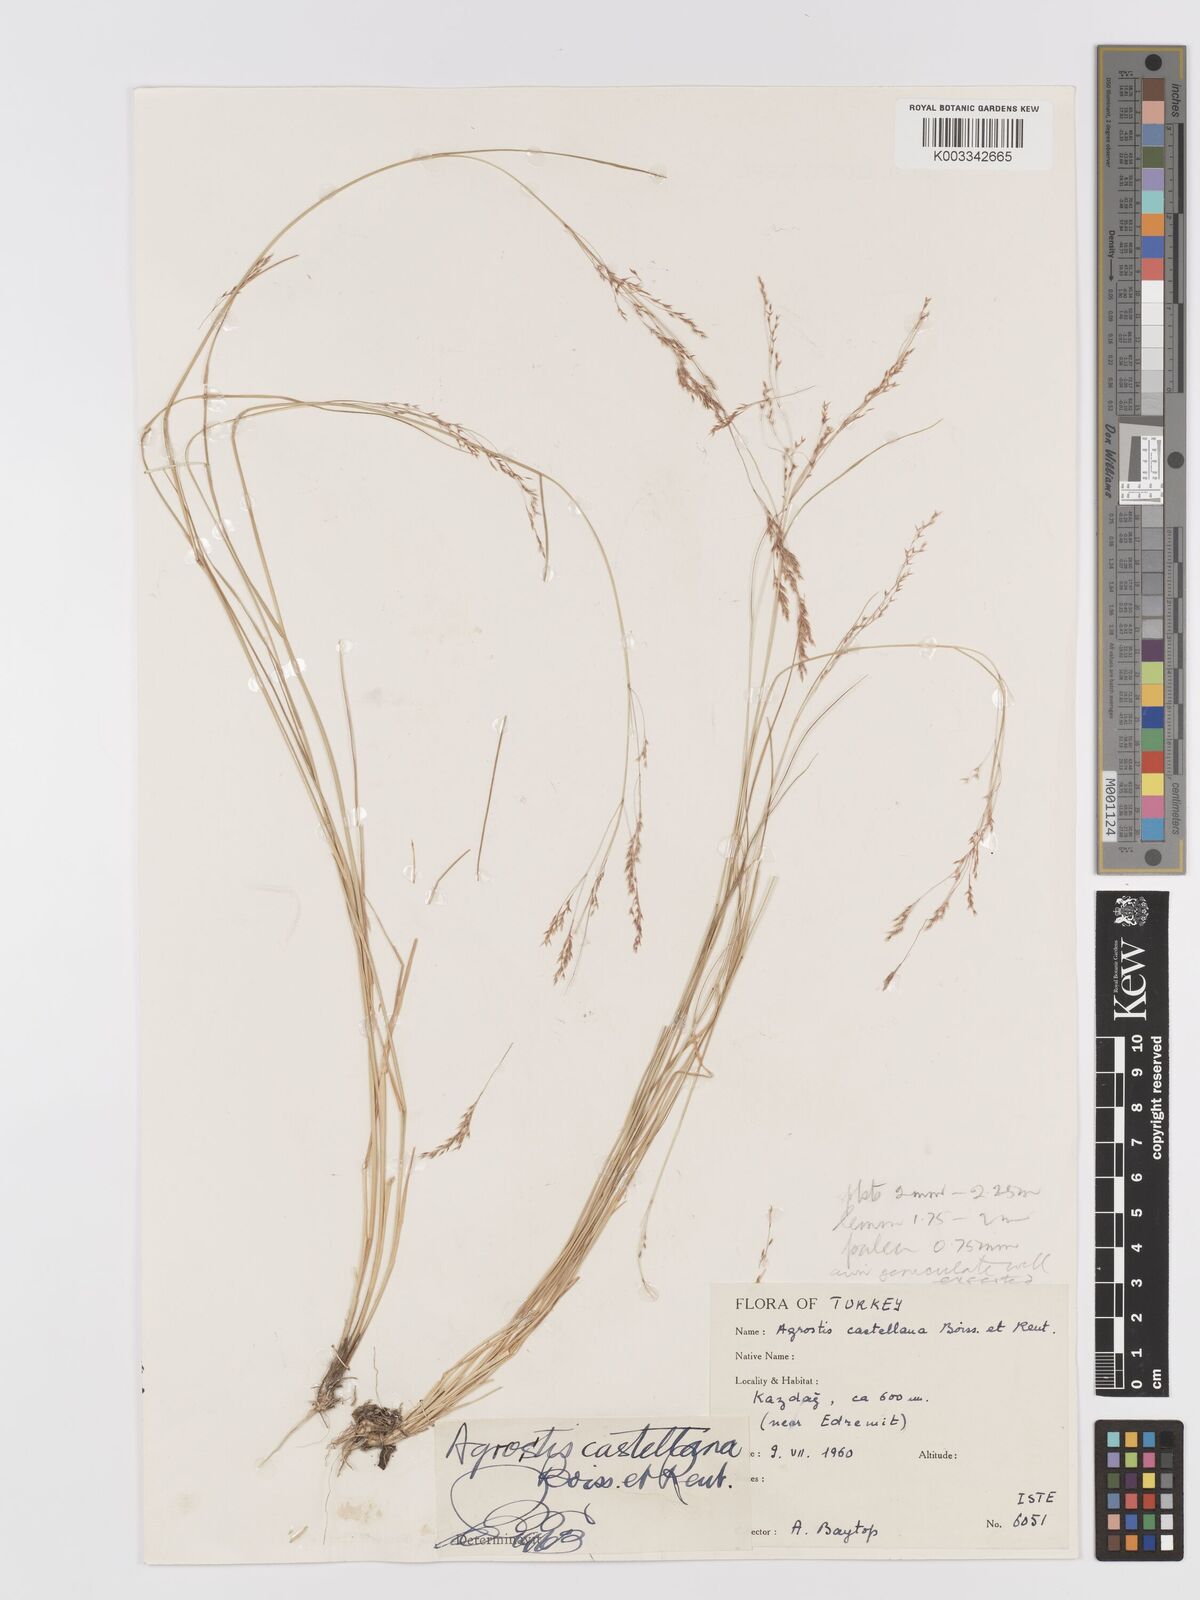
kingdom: Plantae
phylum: Tracheophyta
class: Liliopsida
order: Poales
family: Poaceae
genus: Agrostis
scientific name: Agrostis castellana
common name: Highland bent
